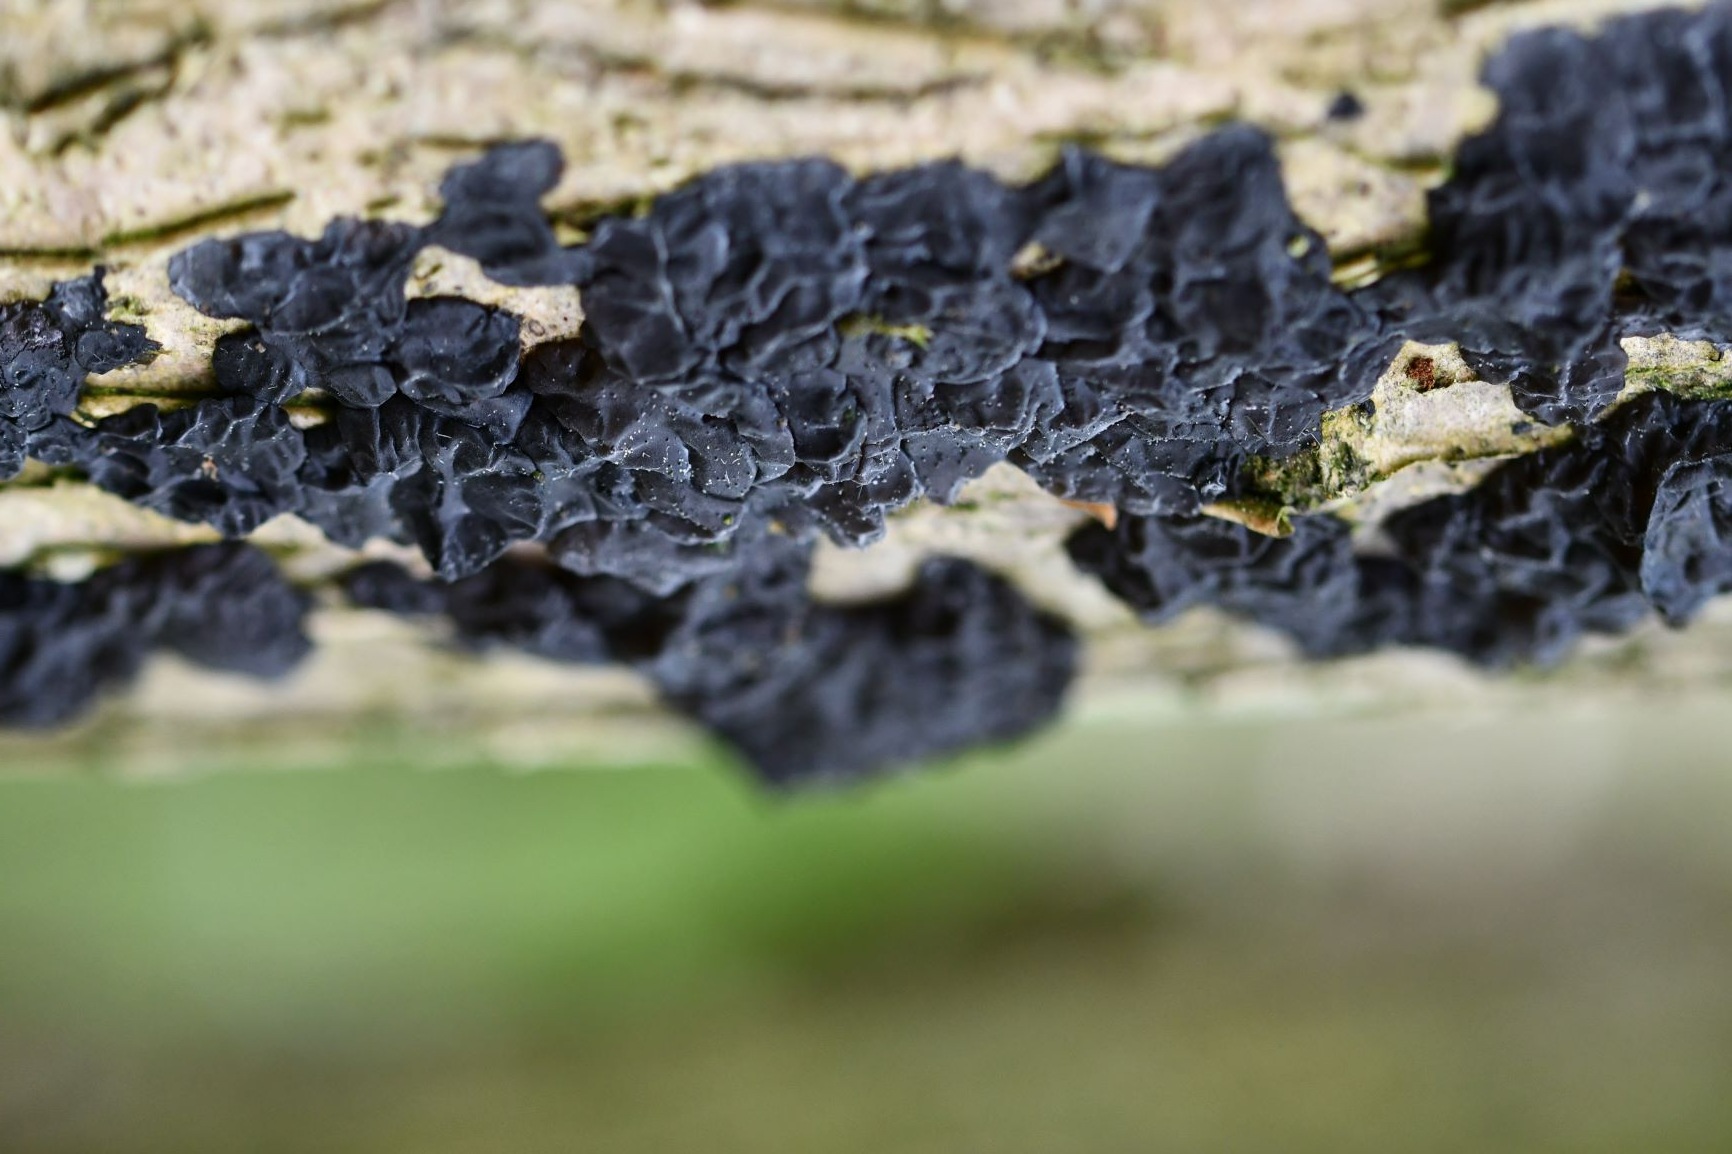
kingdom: Fungi
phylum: Basidiomycota
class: Agaricomycetes
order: Auriculariales
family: Auriculariaceae
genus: Exidia
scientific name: Exidia nigricans
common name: almindelig bævretop
